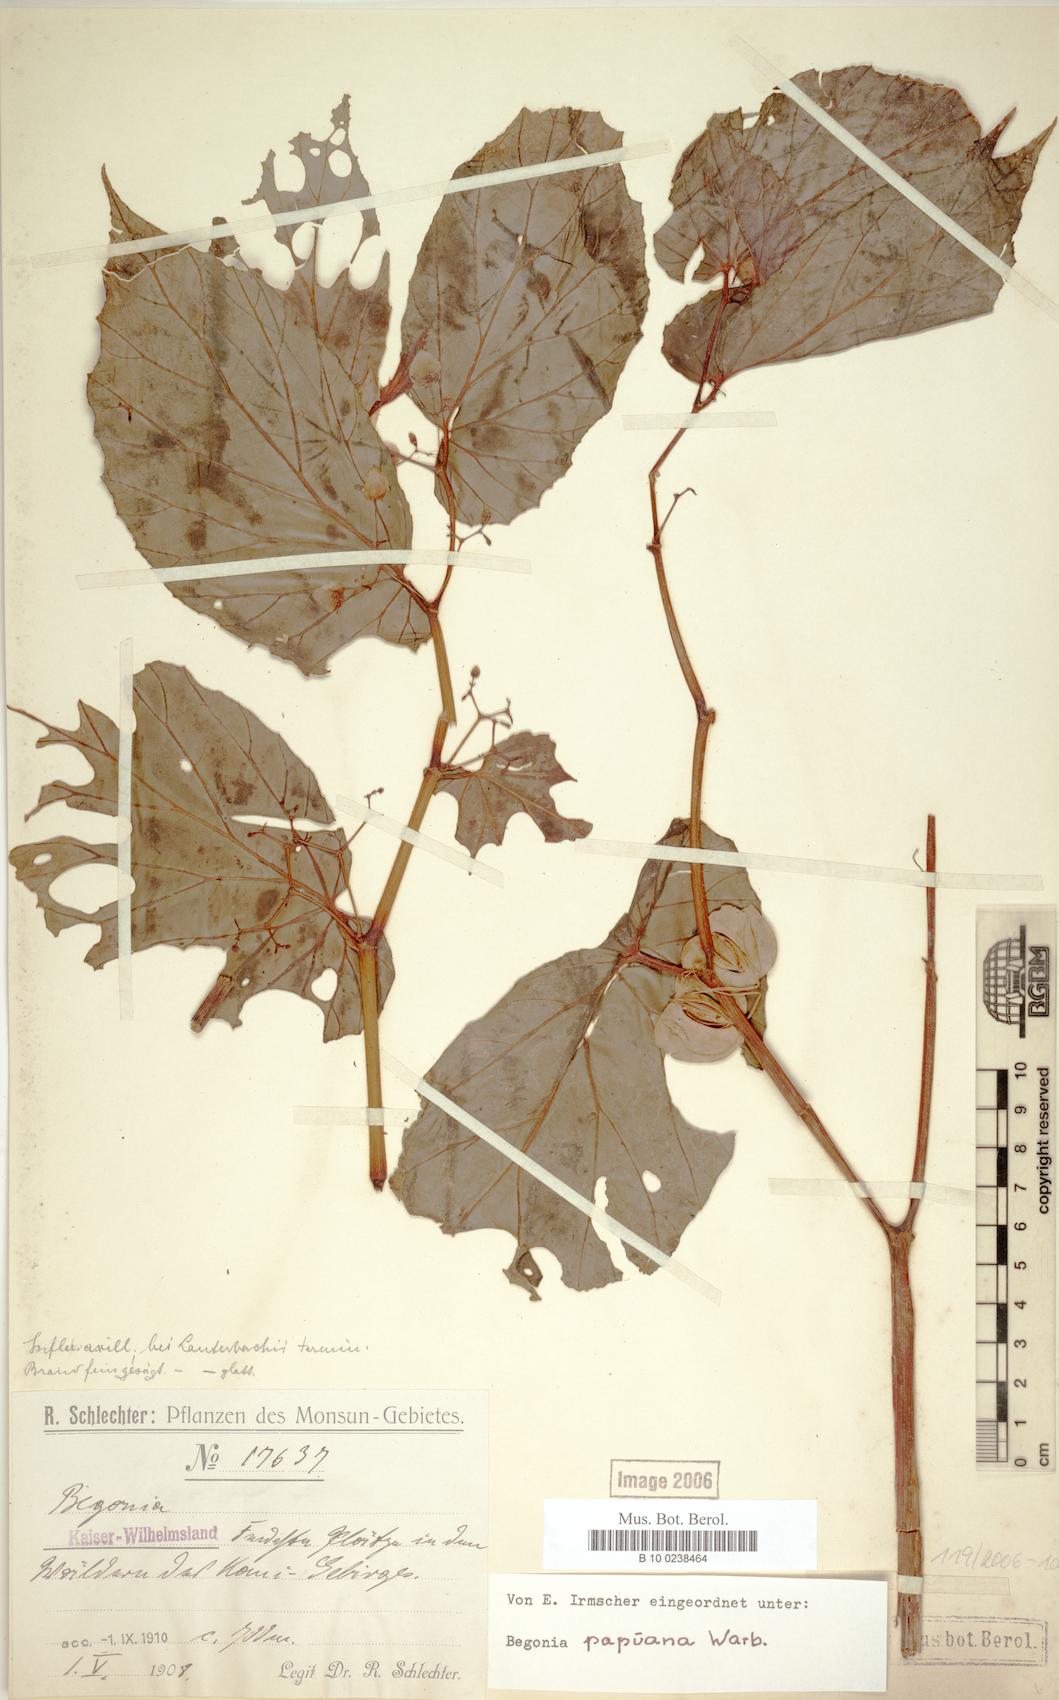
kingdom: Plantae
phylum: Tracheophyta
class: Magnoliopsida
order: Cucurbitales
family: Begoniaceae
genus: Begonia
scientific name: Begonia papuana
